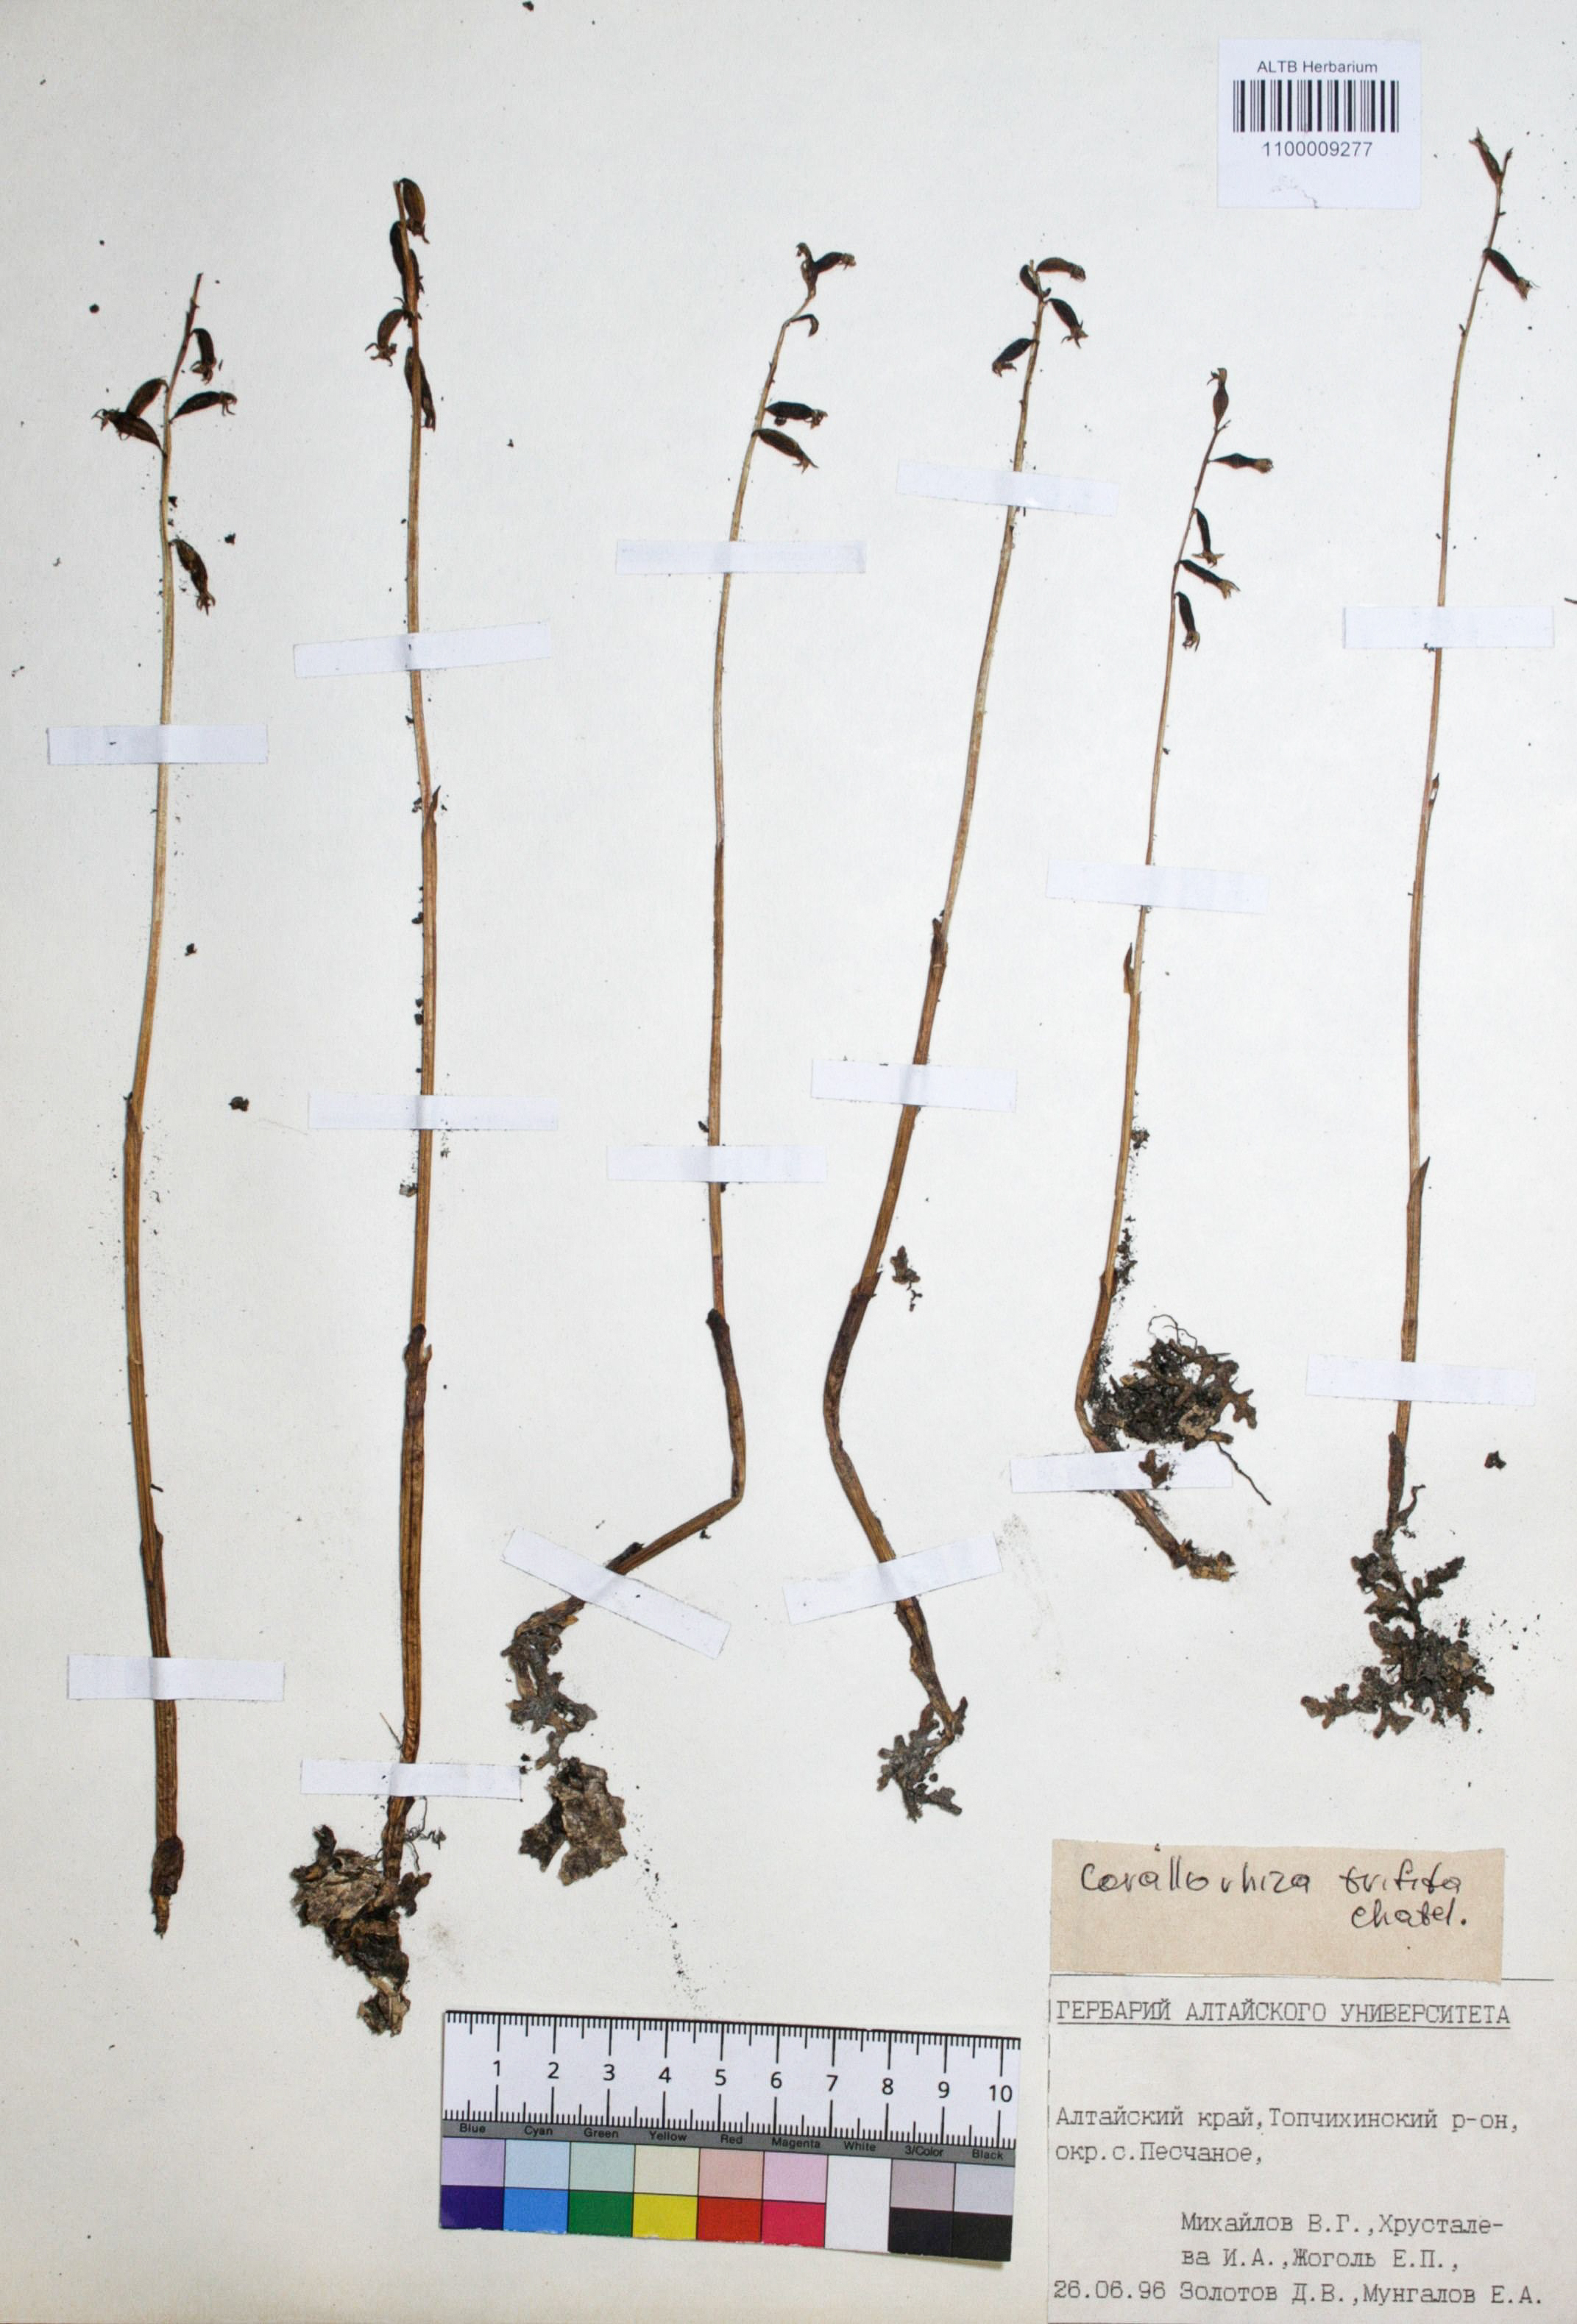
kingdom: Plantae
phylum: Tracheophyta
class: Liliopsida
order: Asparagales
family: Orchidaceae
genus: Corallorhiza
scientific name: Corallorhiza trifida
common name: Yellow coralroot
